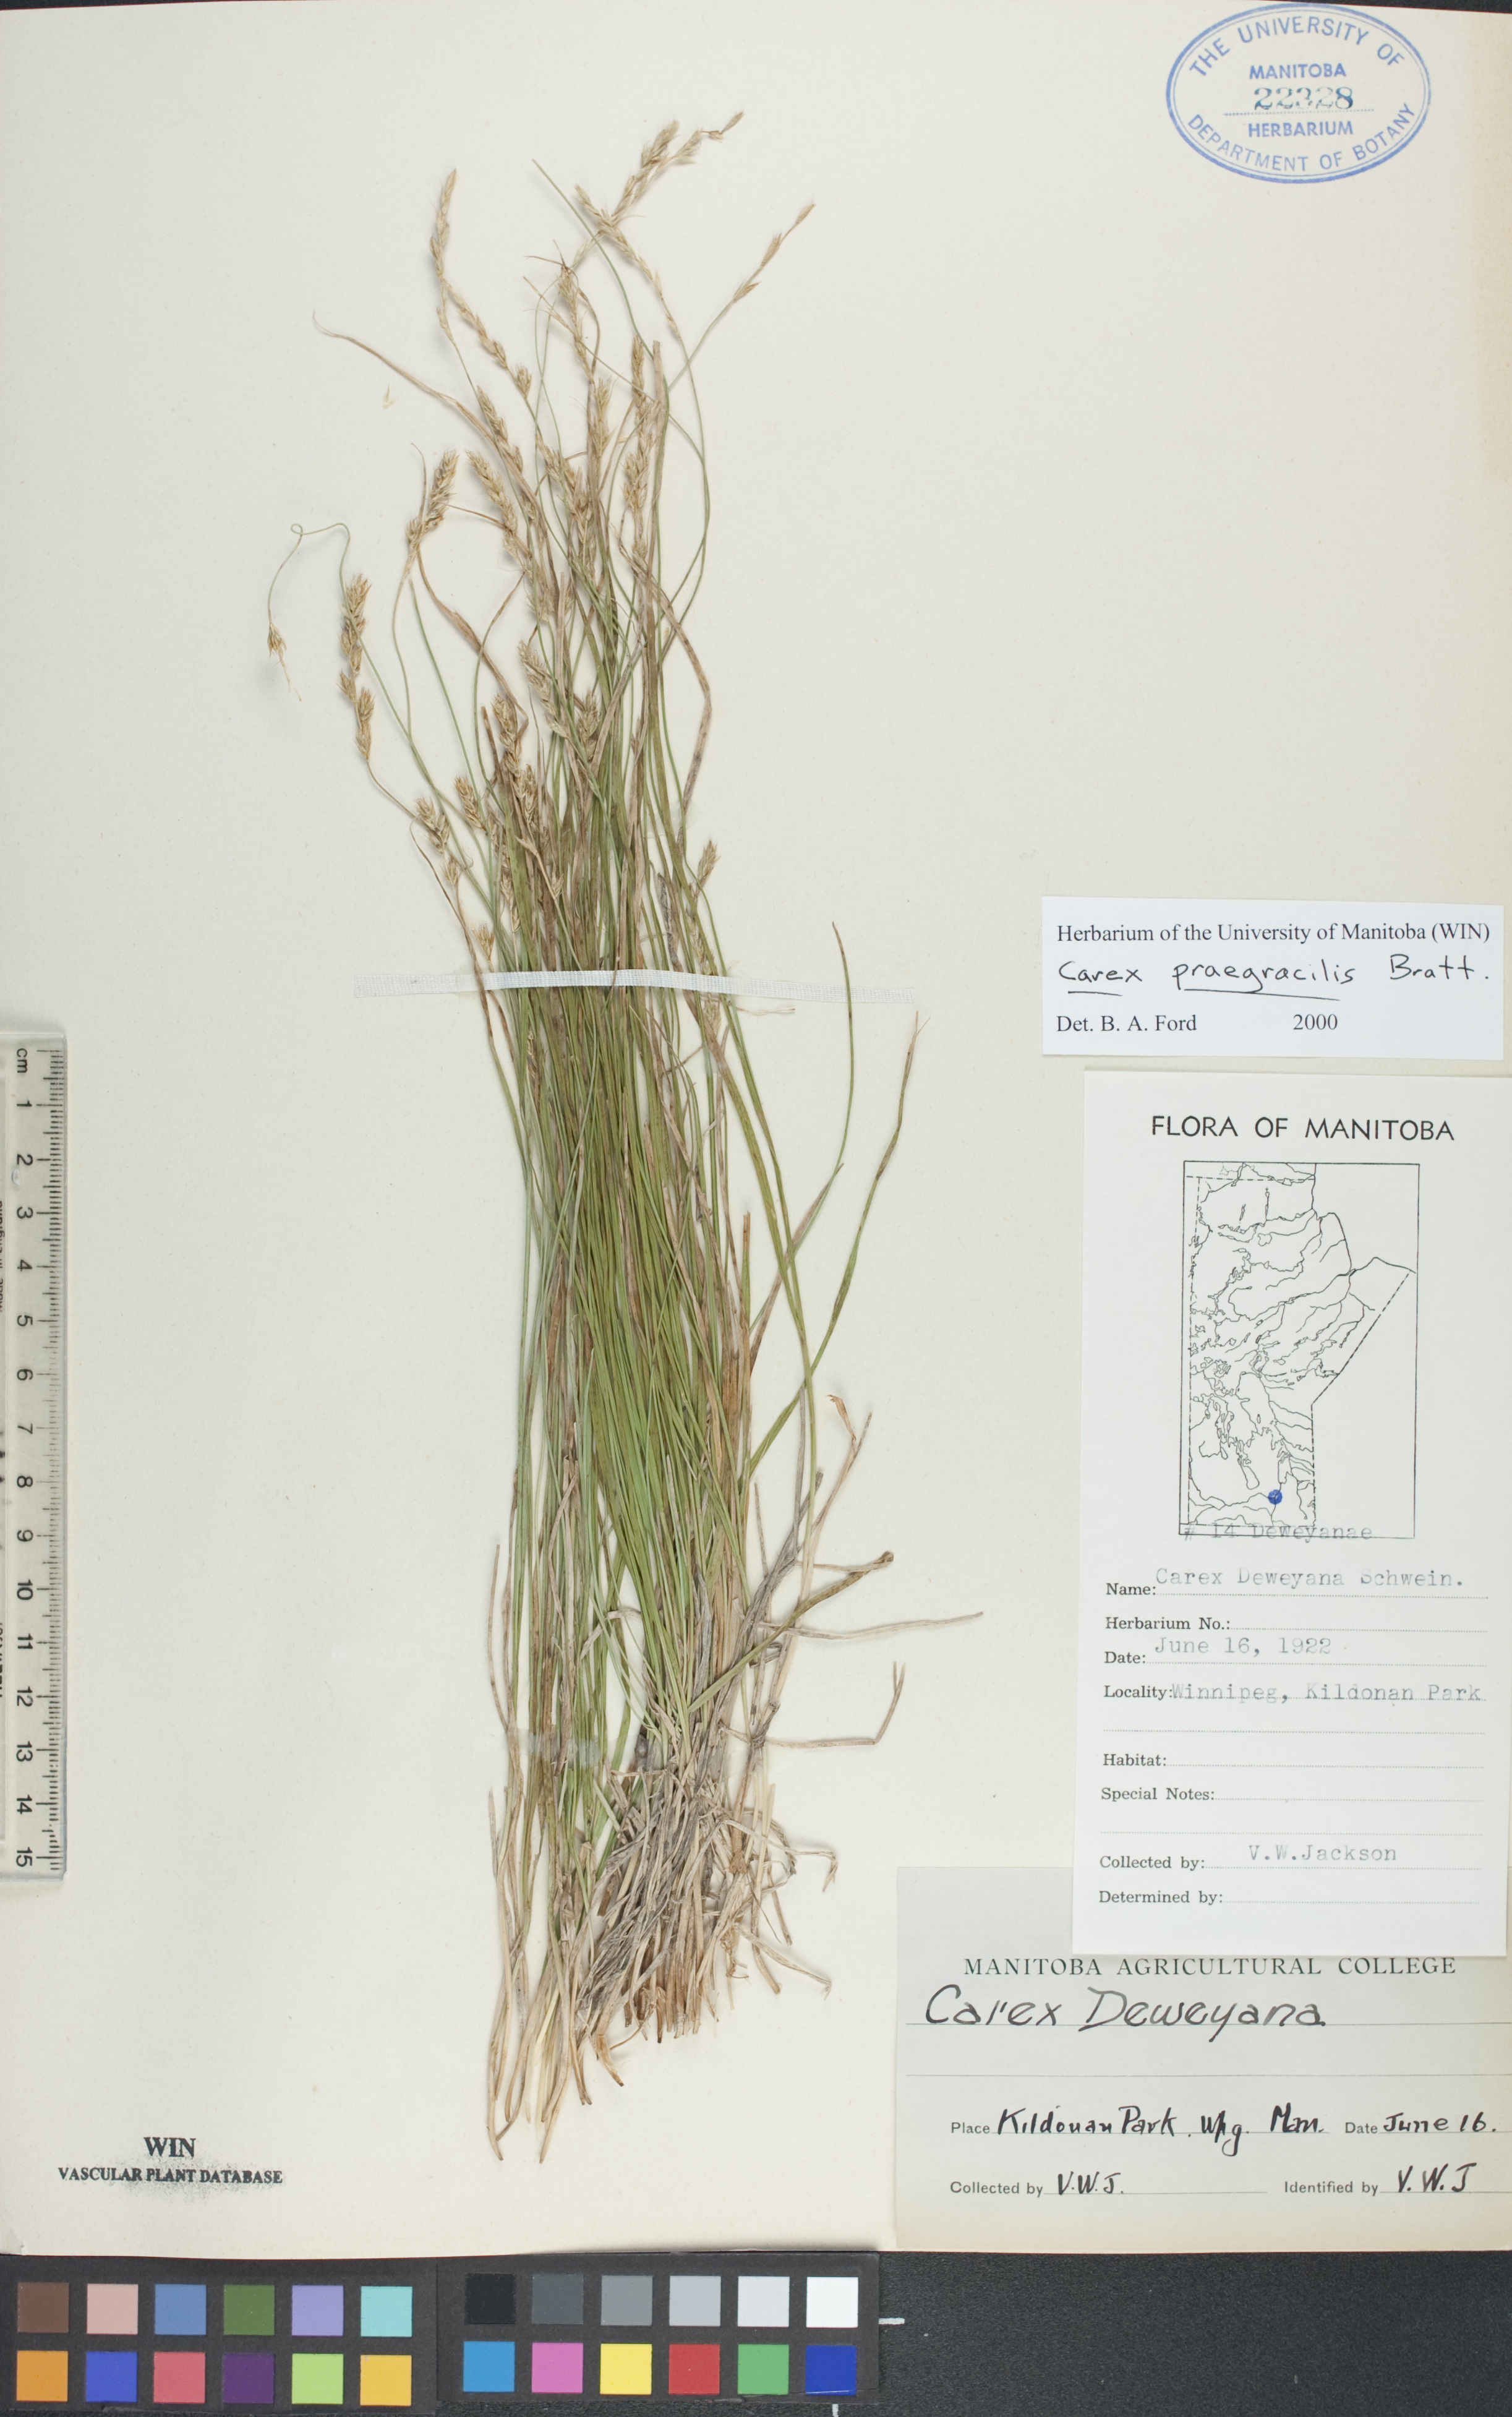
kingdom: Plantae
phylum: Tracheophyta
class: Liliopsida
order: Poales
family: Cyperaceae
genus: Carex
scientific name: Carex praegracilis
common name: Black creeper sedge
